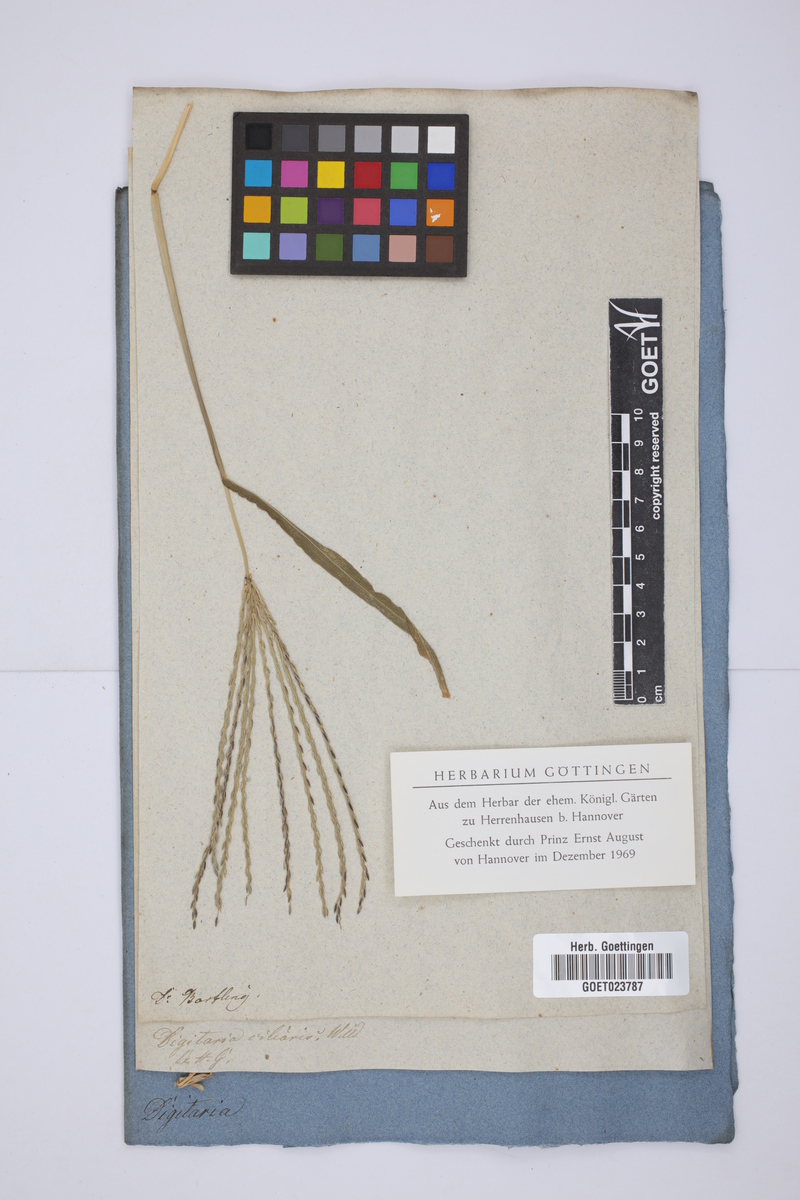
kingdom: Plantae
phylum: Tracheophyta
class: Liliopsida
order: Poales
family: Poaceae
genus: Digitaria
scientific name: Digitaria ciliaris
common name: Tropical finger-grass
